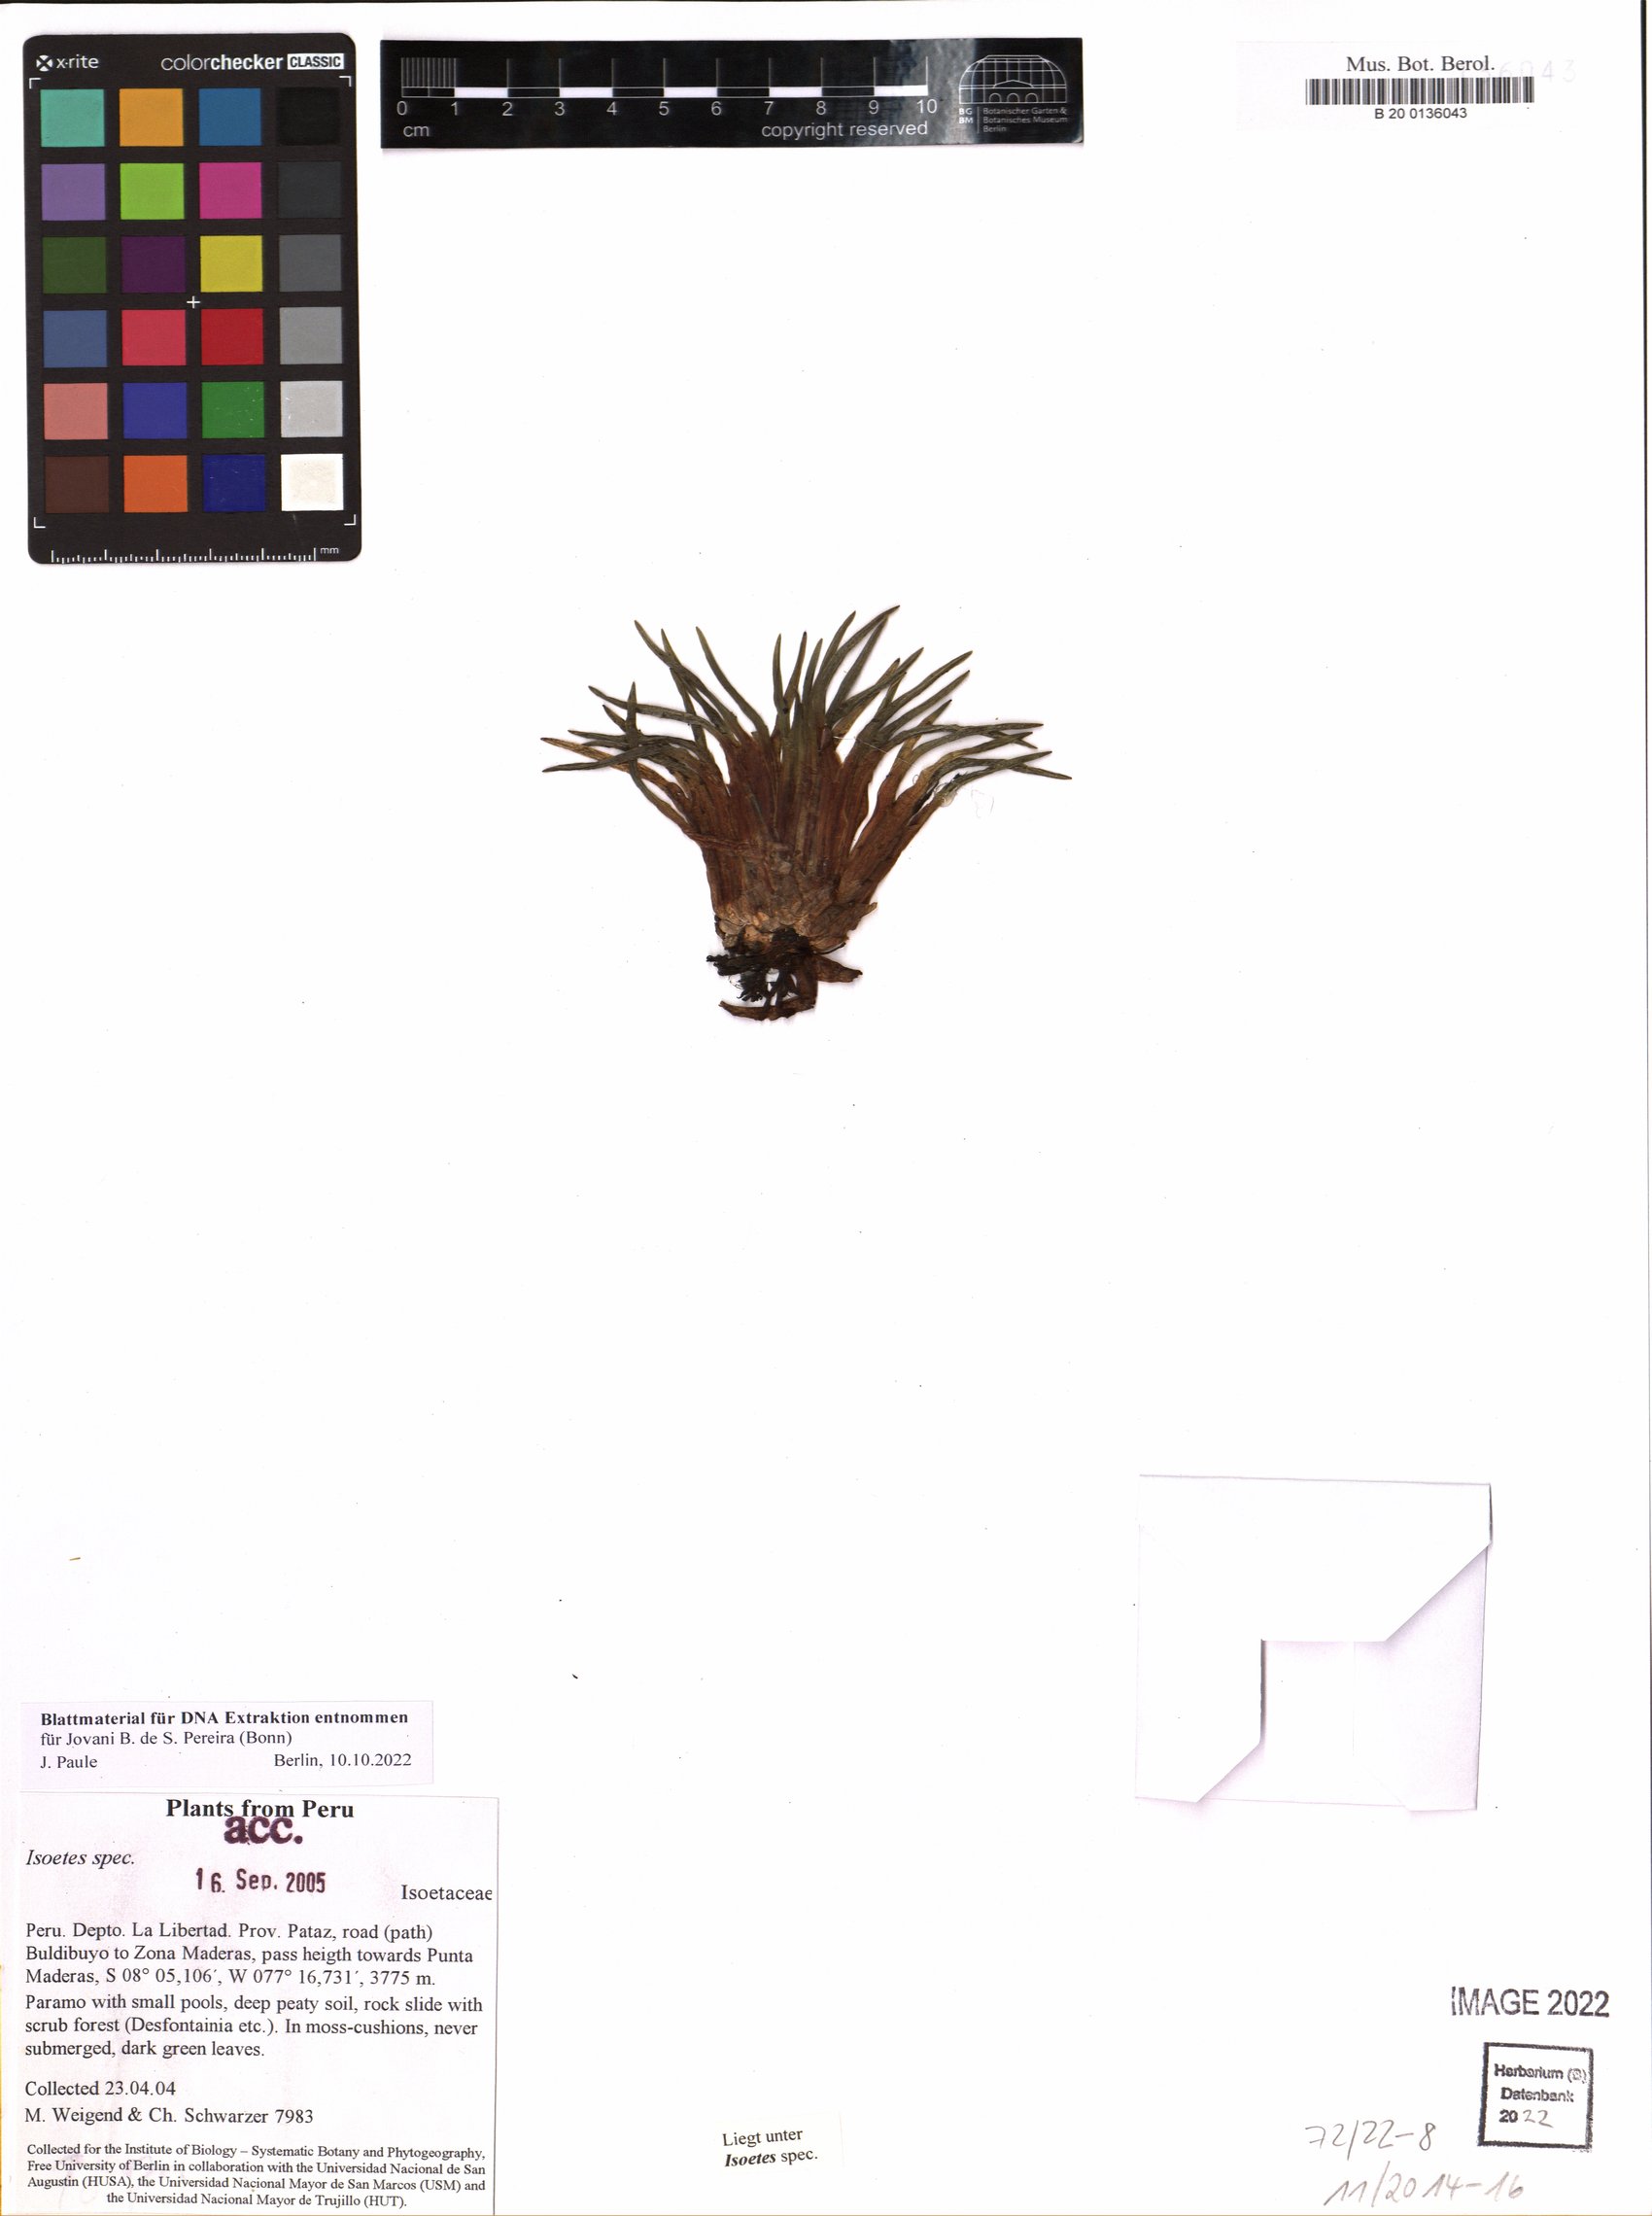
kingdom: Plantae
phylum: Tracheophyta
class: Lycopodiopsida
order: Isoetales
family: Isoetaceae
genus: Isoetes
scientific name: Isoetes
